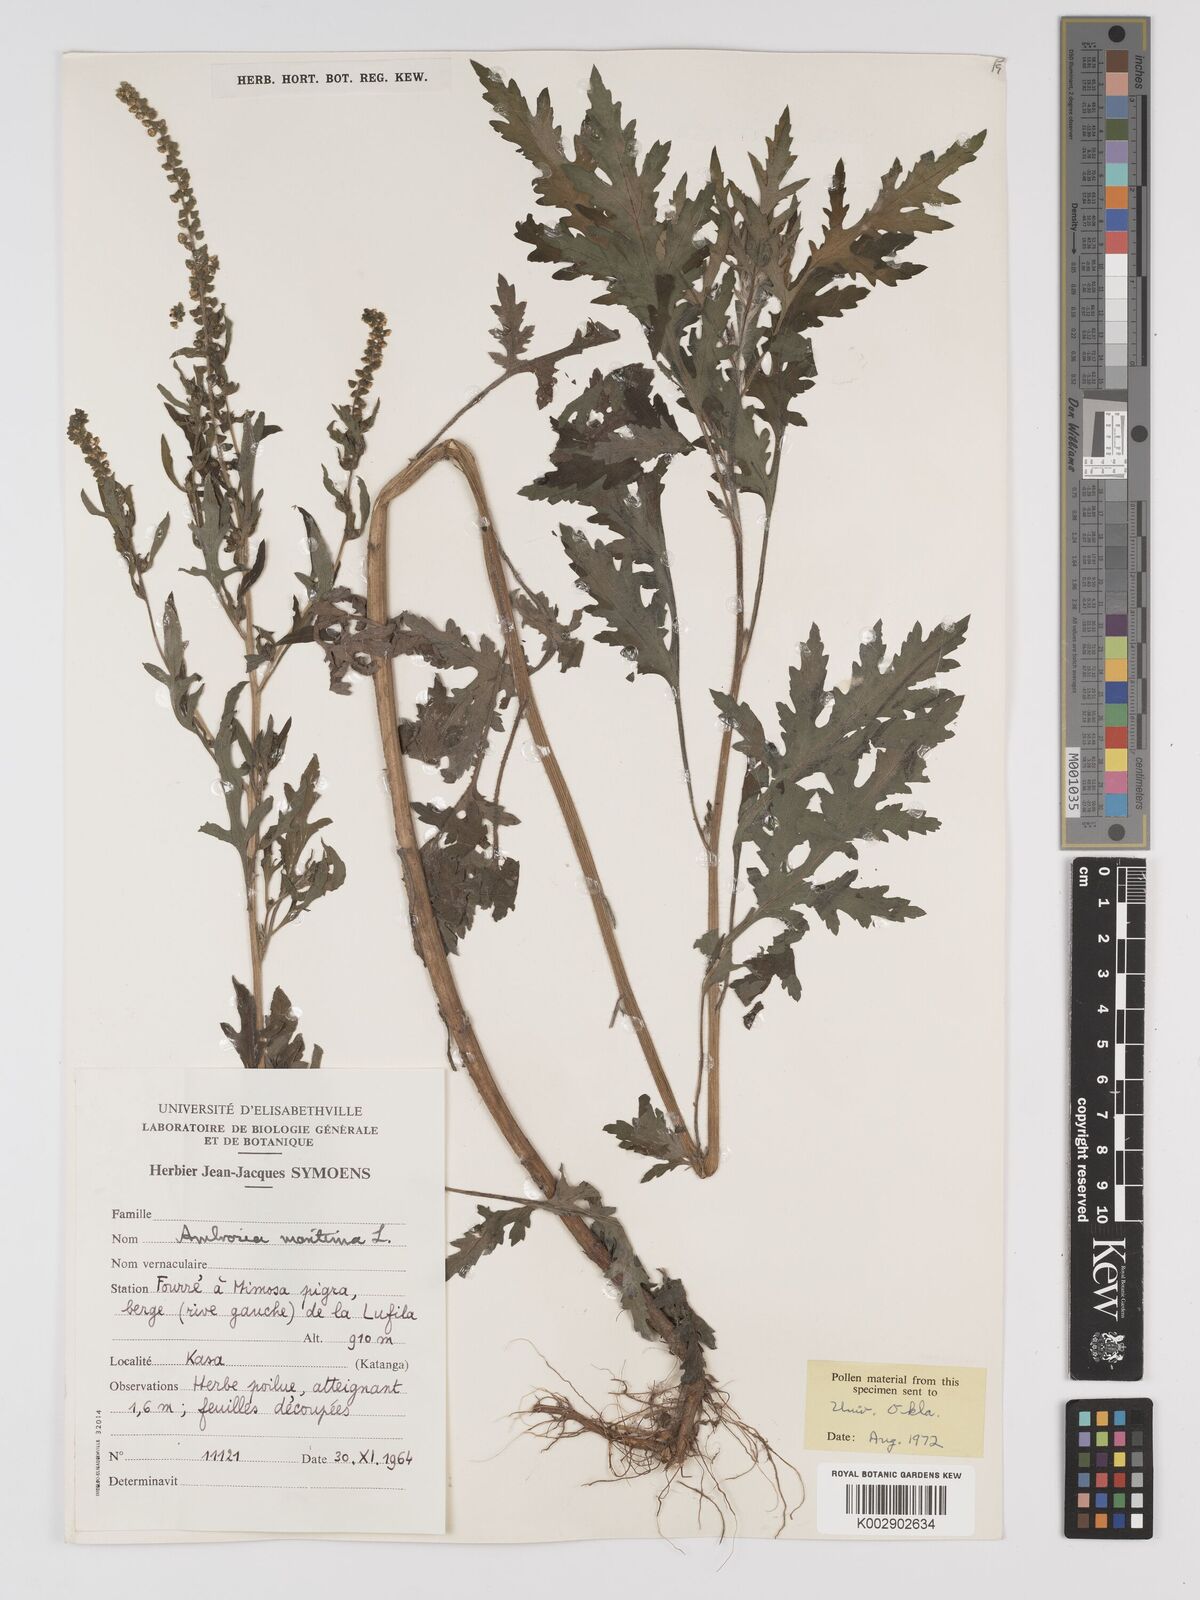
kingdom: Plantae
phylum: Tracheophyta
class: Magnoliopsida
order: Asterales
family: Asteraceae
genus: Ambrosia
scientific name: Ambrosia maritima
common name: Sea ambrosia
